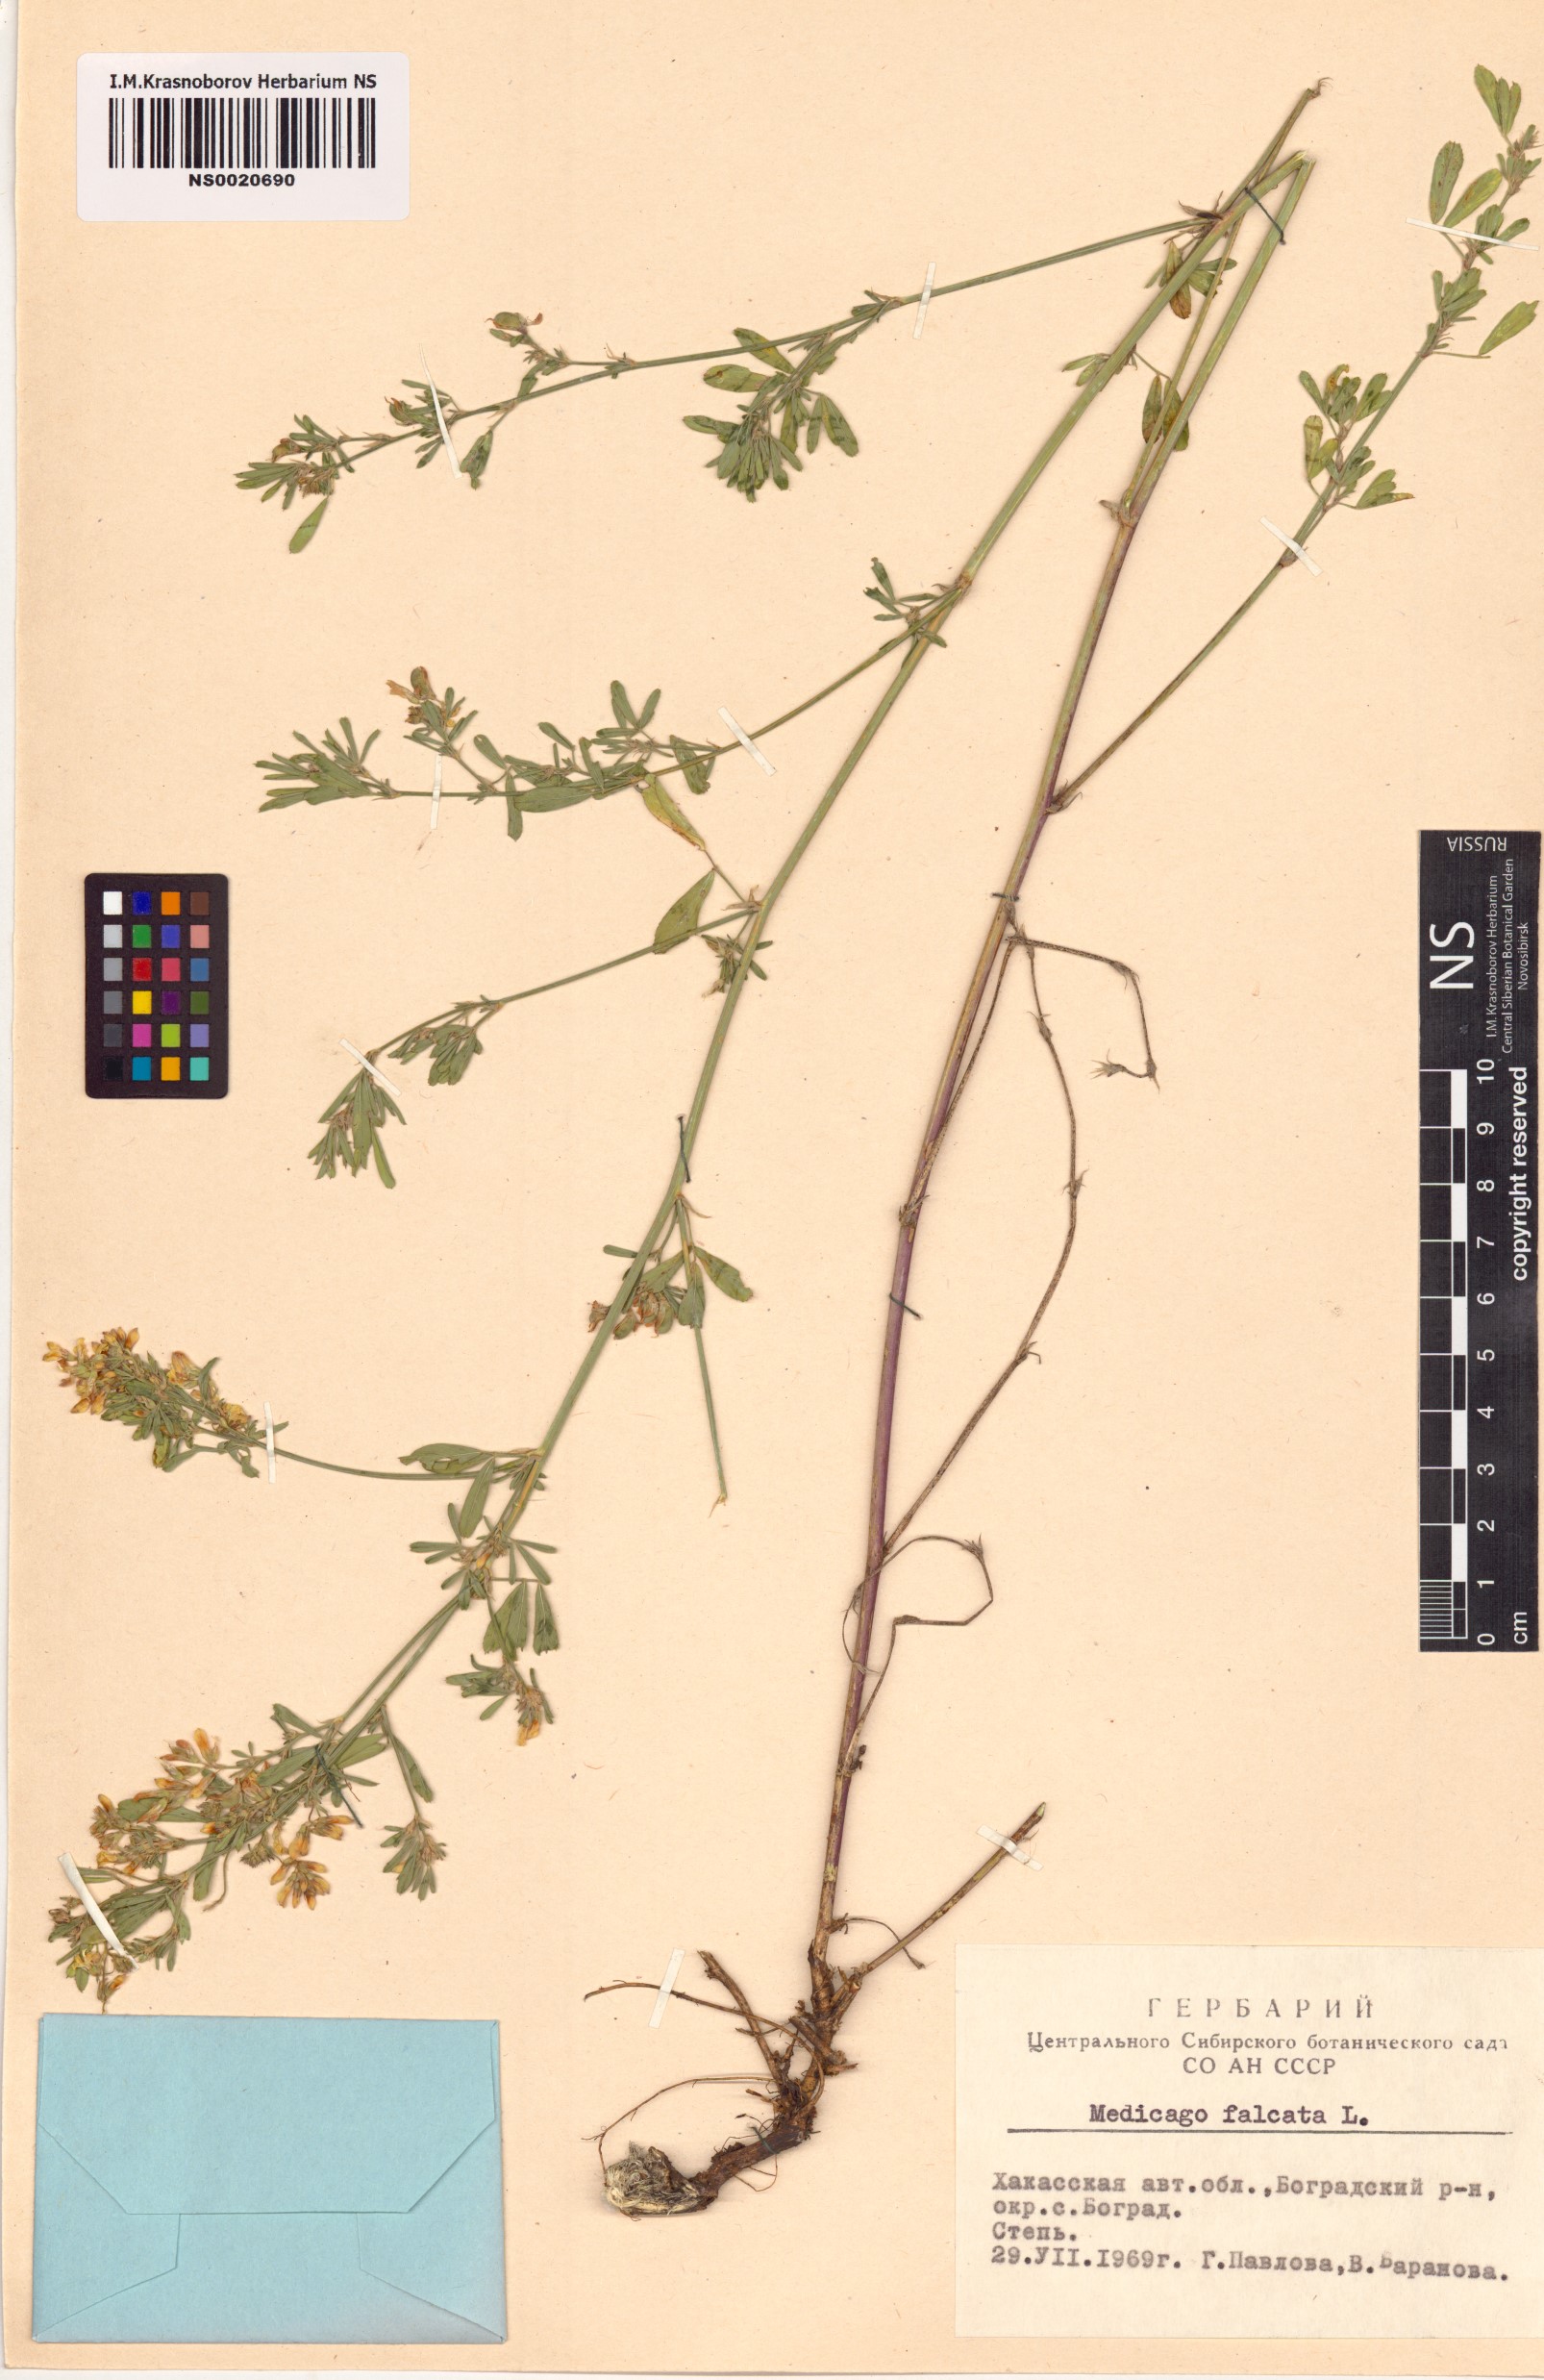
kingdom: Plantae
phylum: Tracheophyta
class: Magnoliopsida
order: Fabales
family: Fabaceae
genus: Medicago
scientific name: Medicago falcata
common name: Sickle medick
